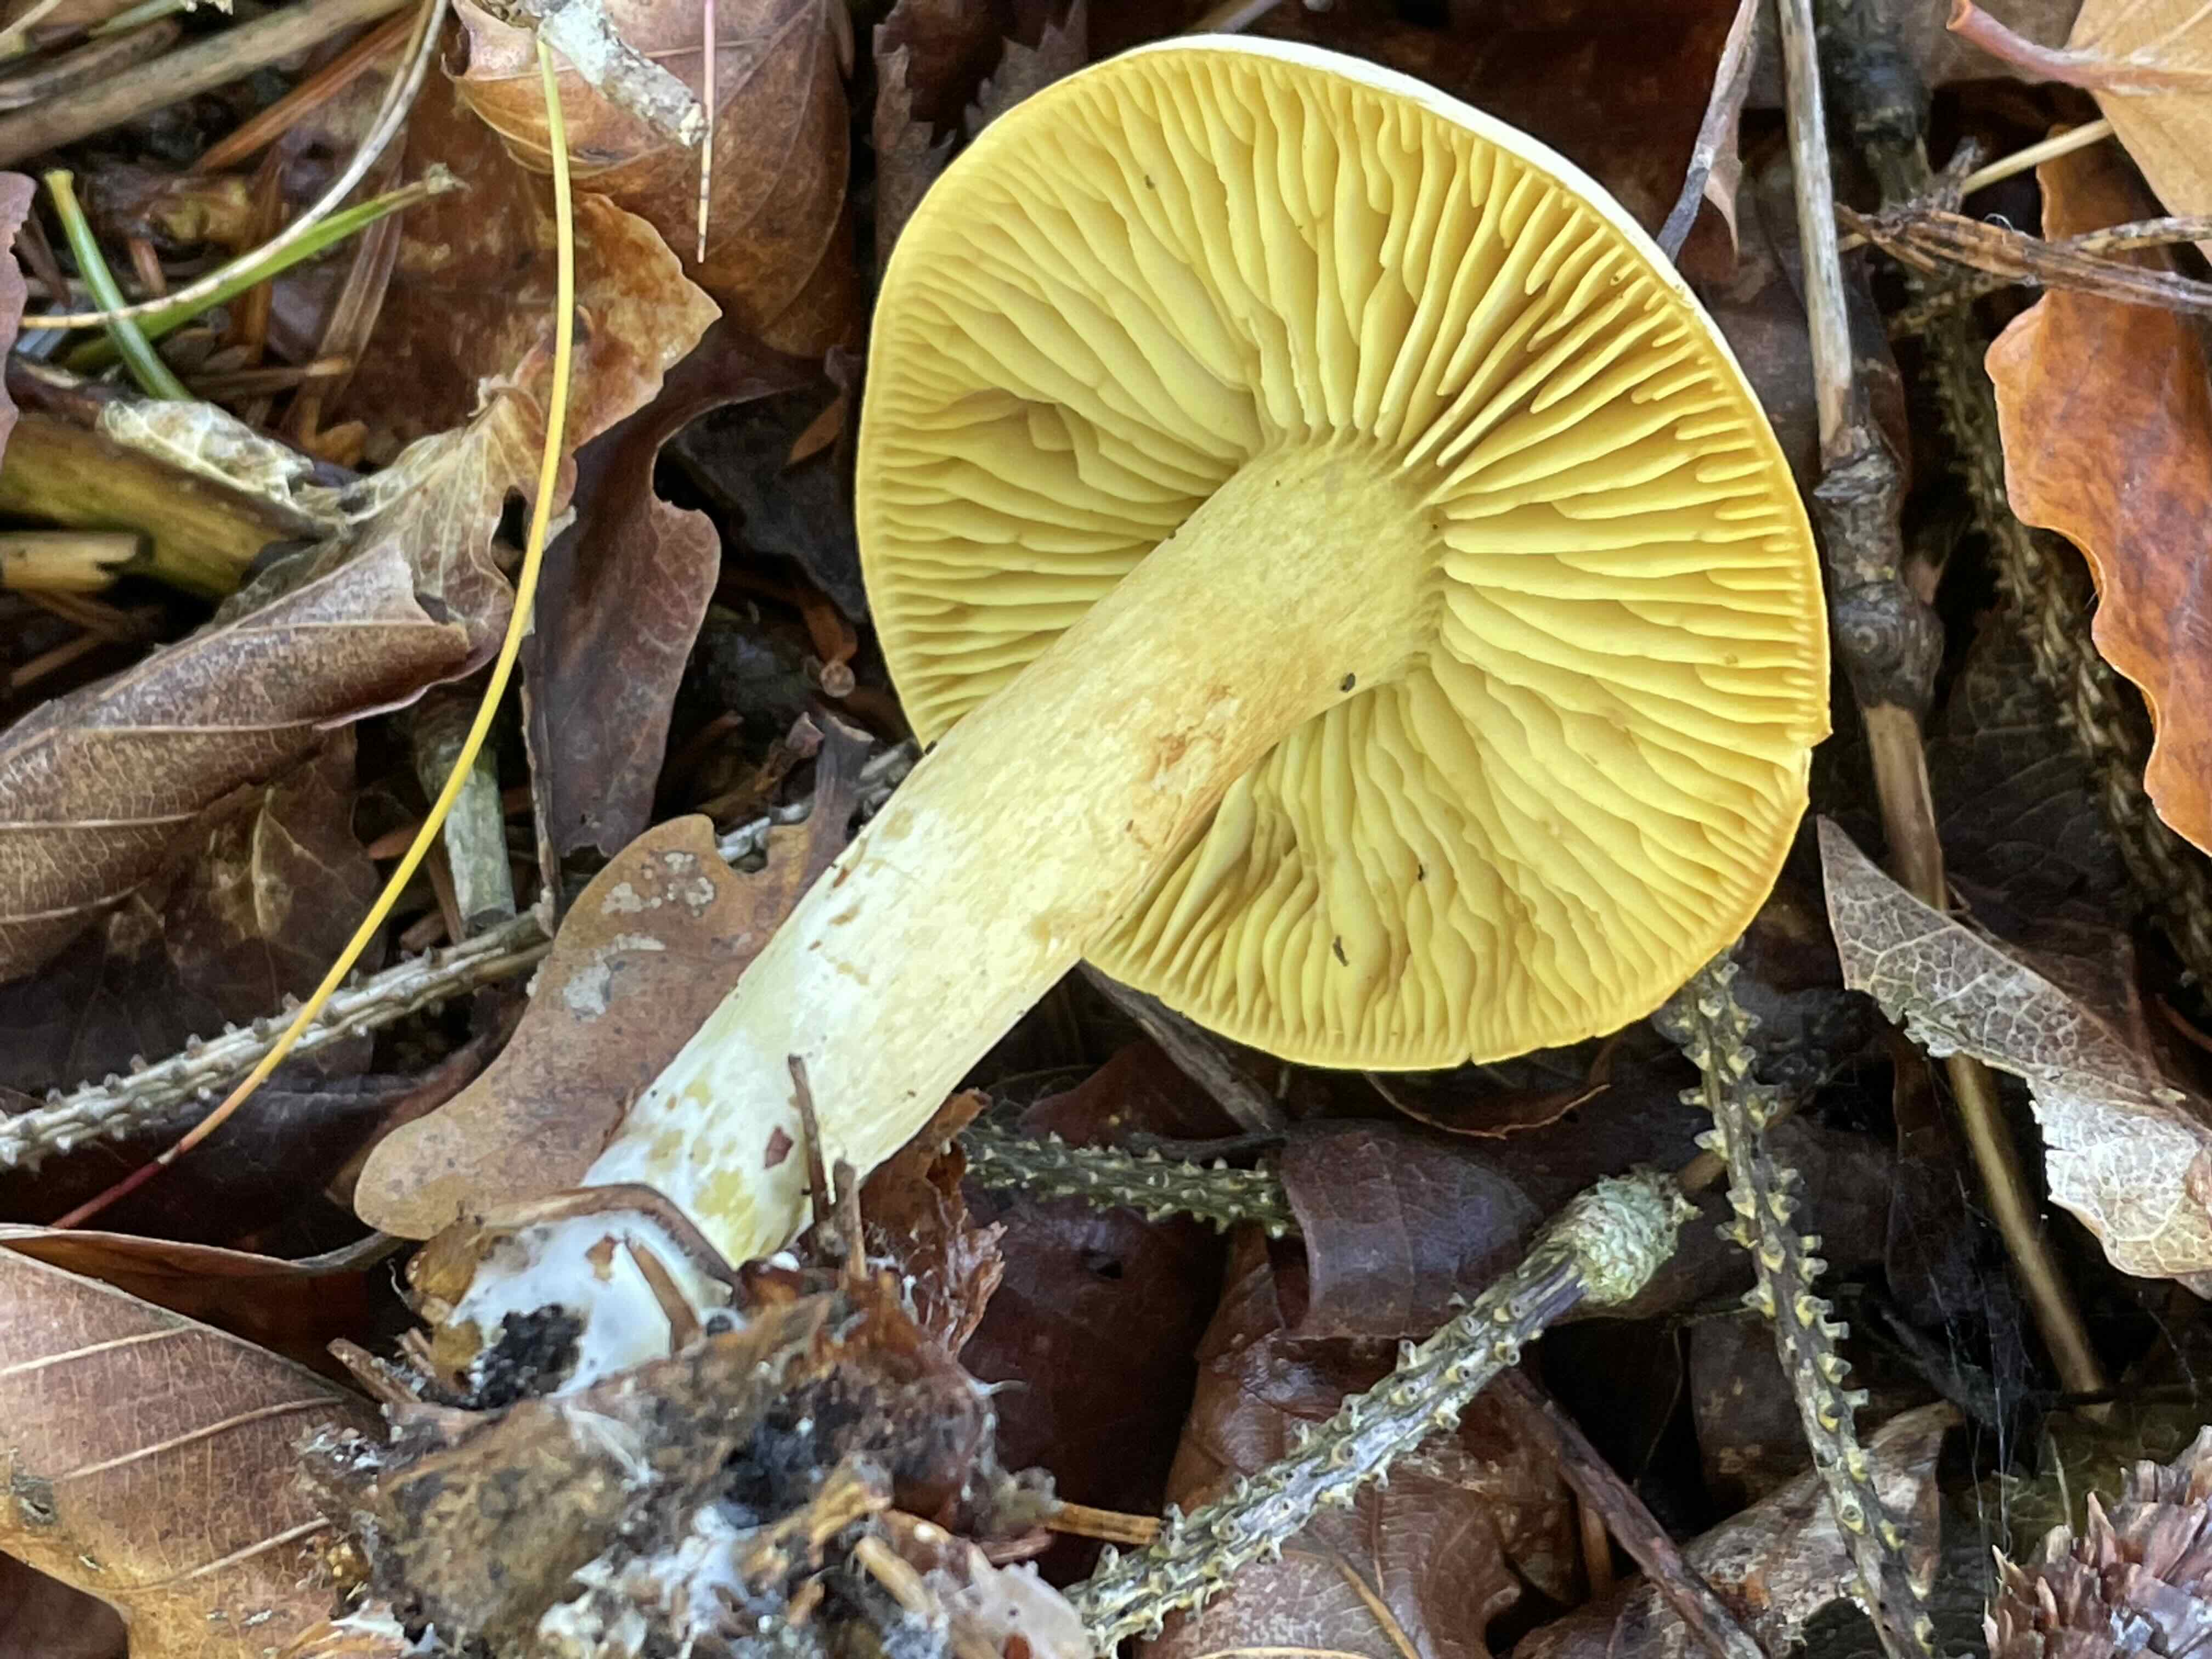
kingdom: Fungi
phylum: Basidiomycota
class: Agaricomycetes
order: Agaricales
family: Tricholomataceae
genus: Tricholoma
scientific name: Tricholoma sulphureum
